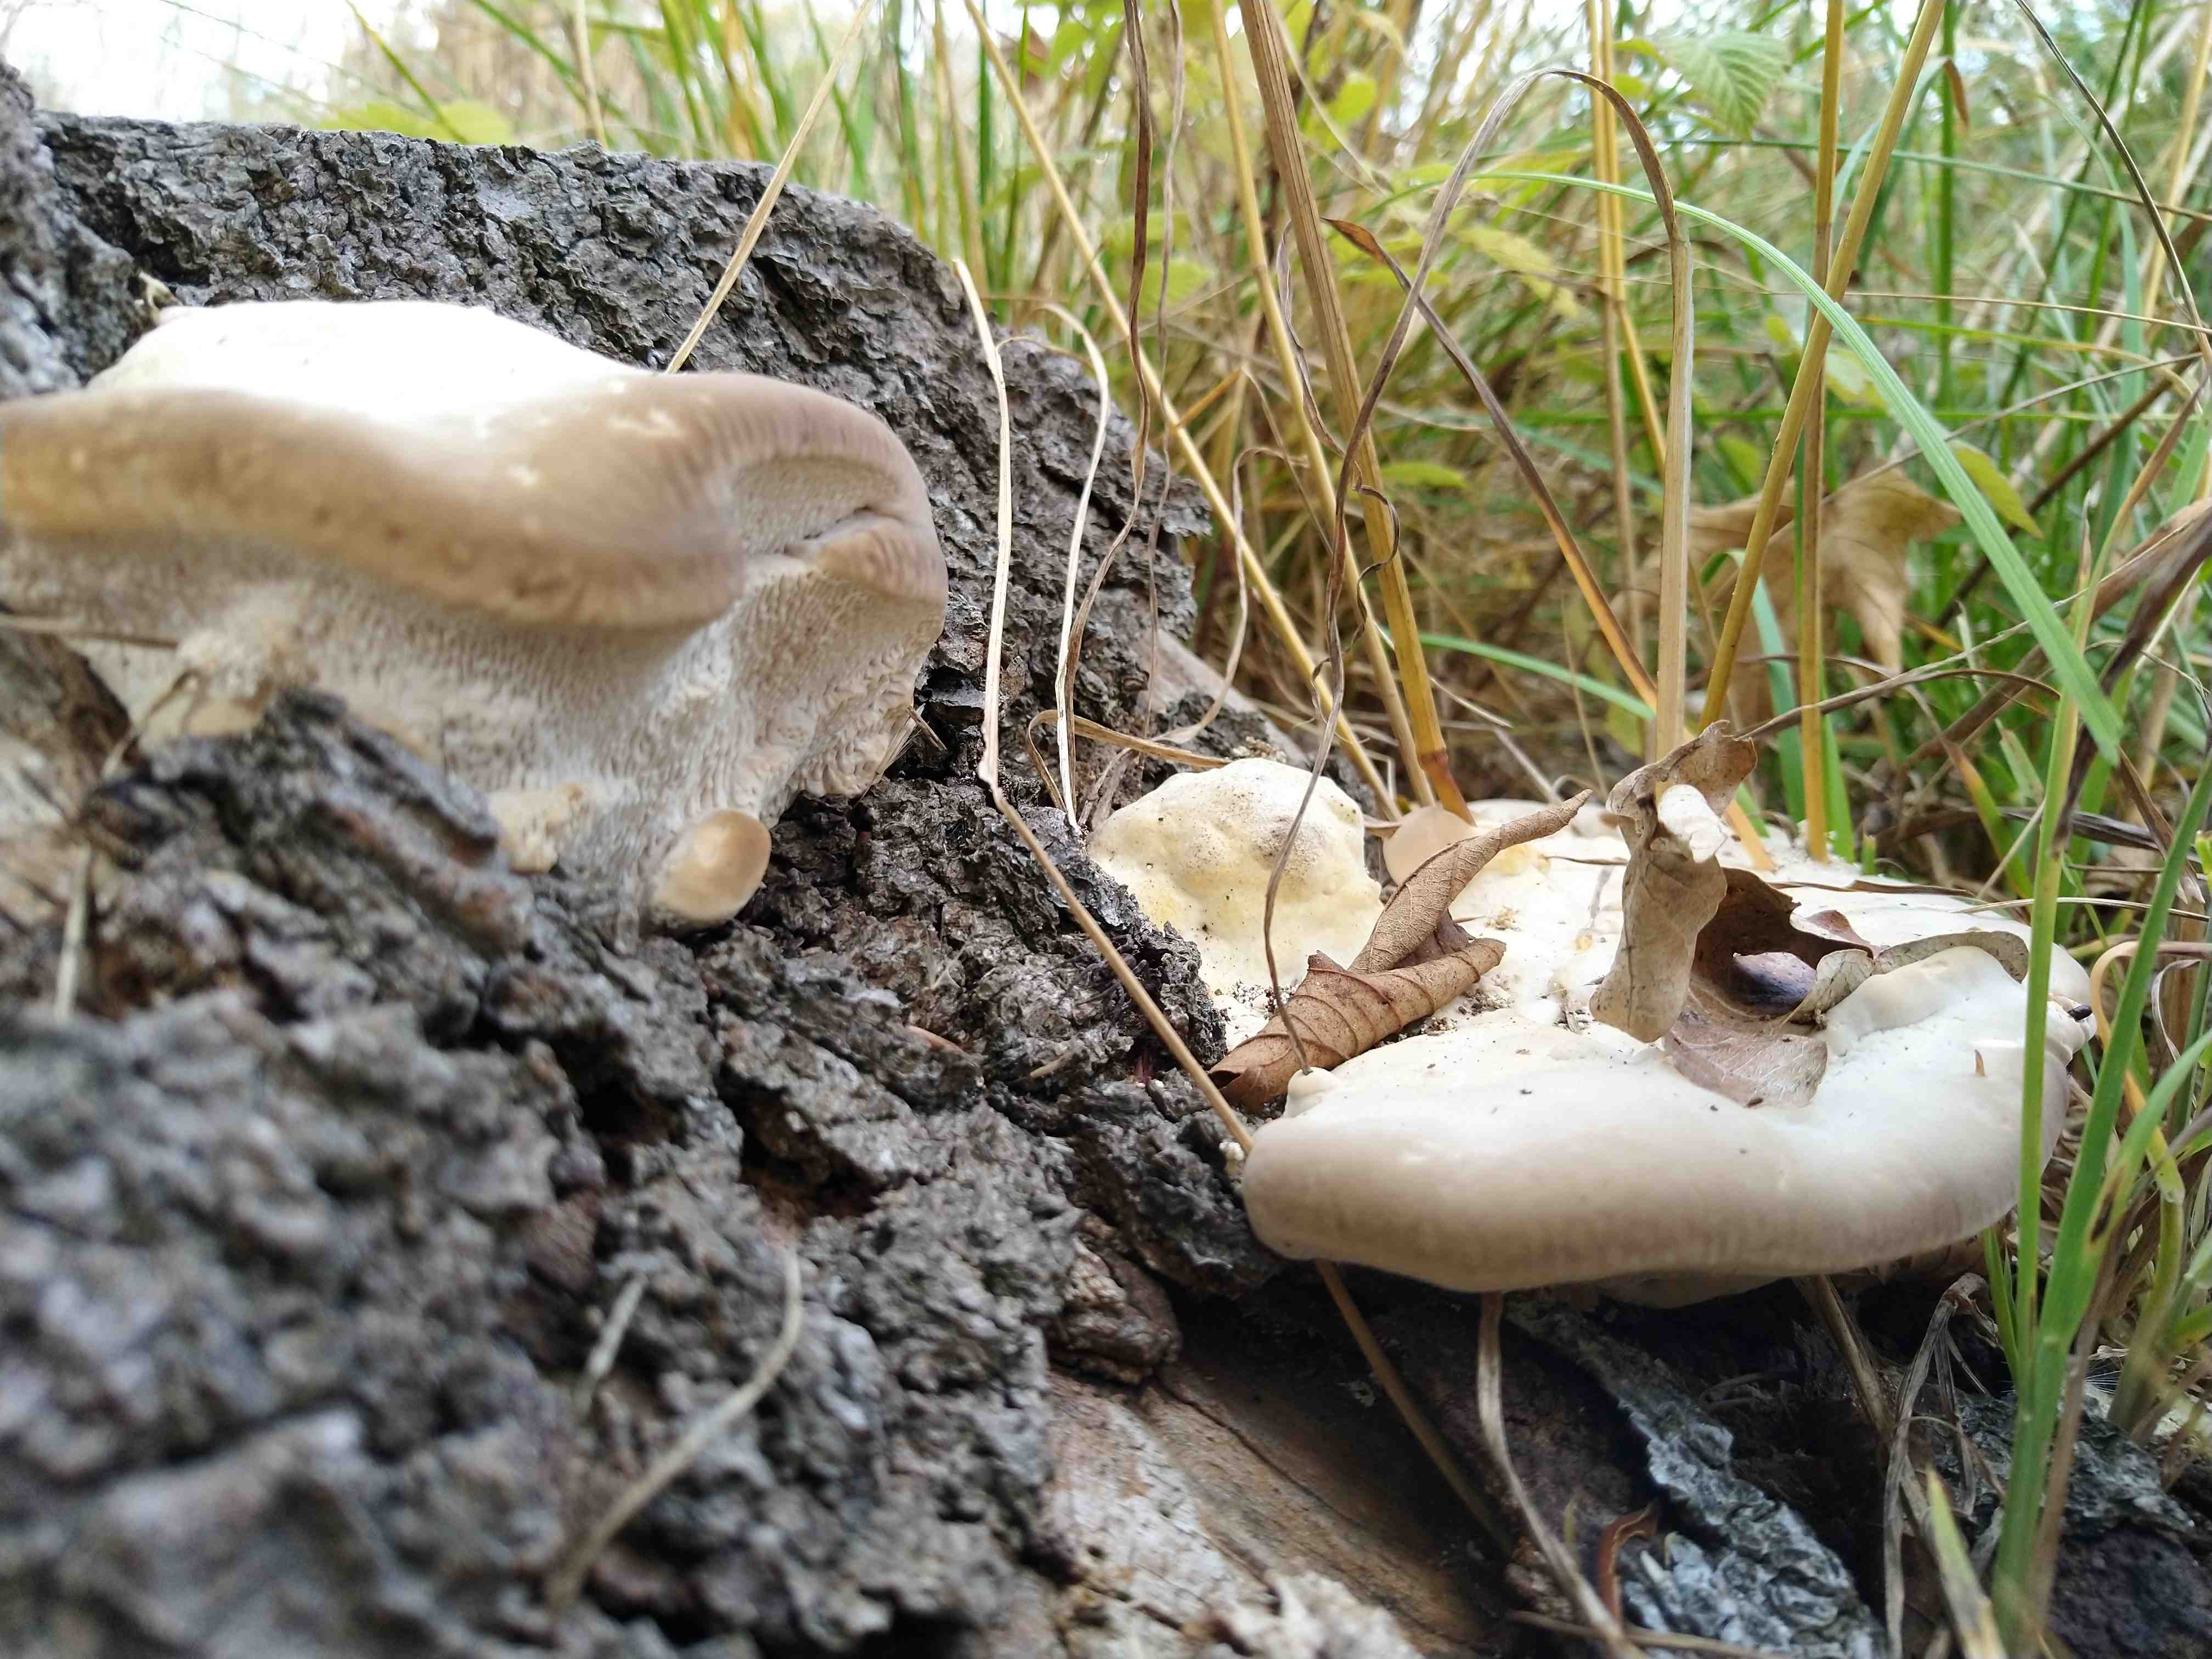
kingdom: Fungi
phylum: Basidiomycota
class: Agaricomycetes
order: Polyporales
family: Polyporaceae
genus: Trametes
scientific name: Trametes gibbosa
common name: puklet læderporesvamp
